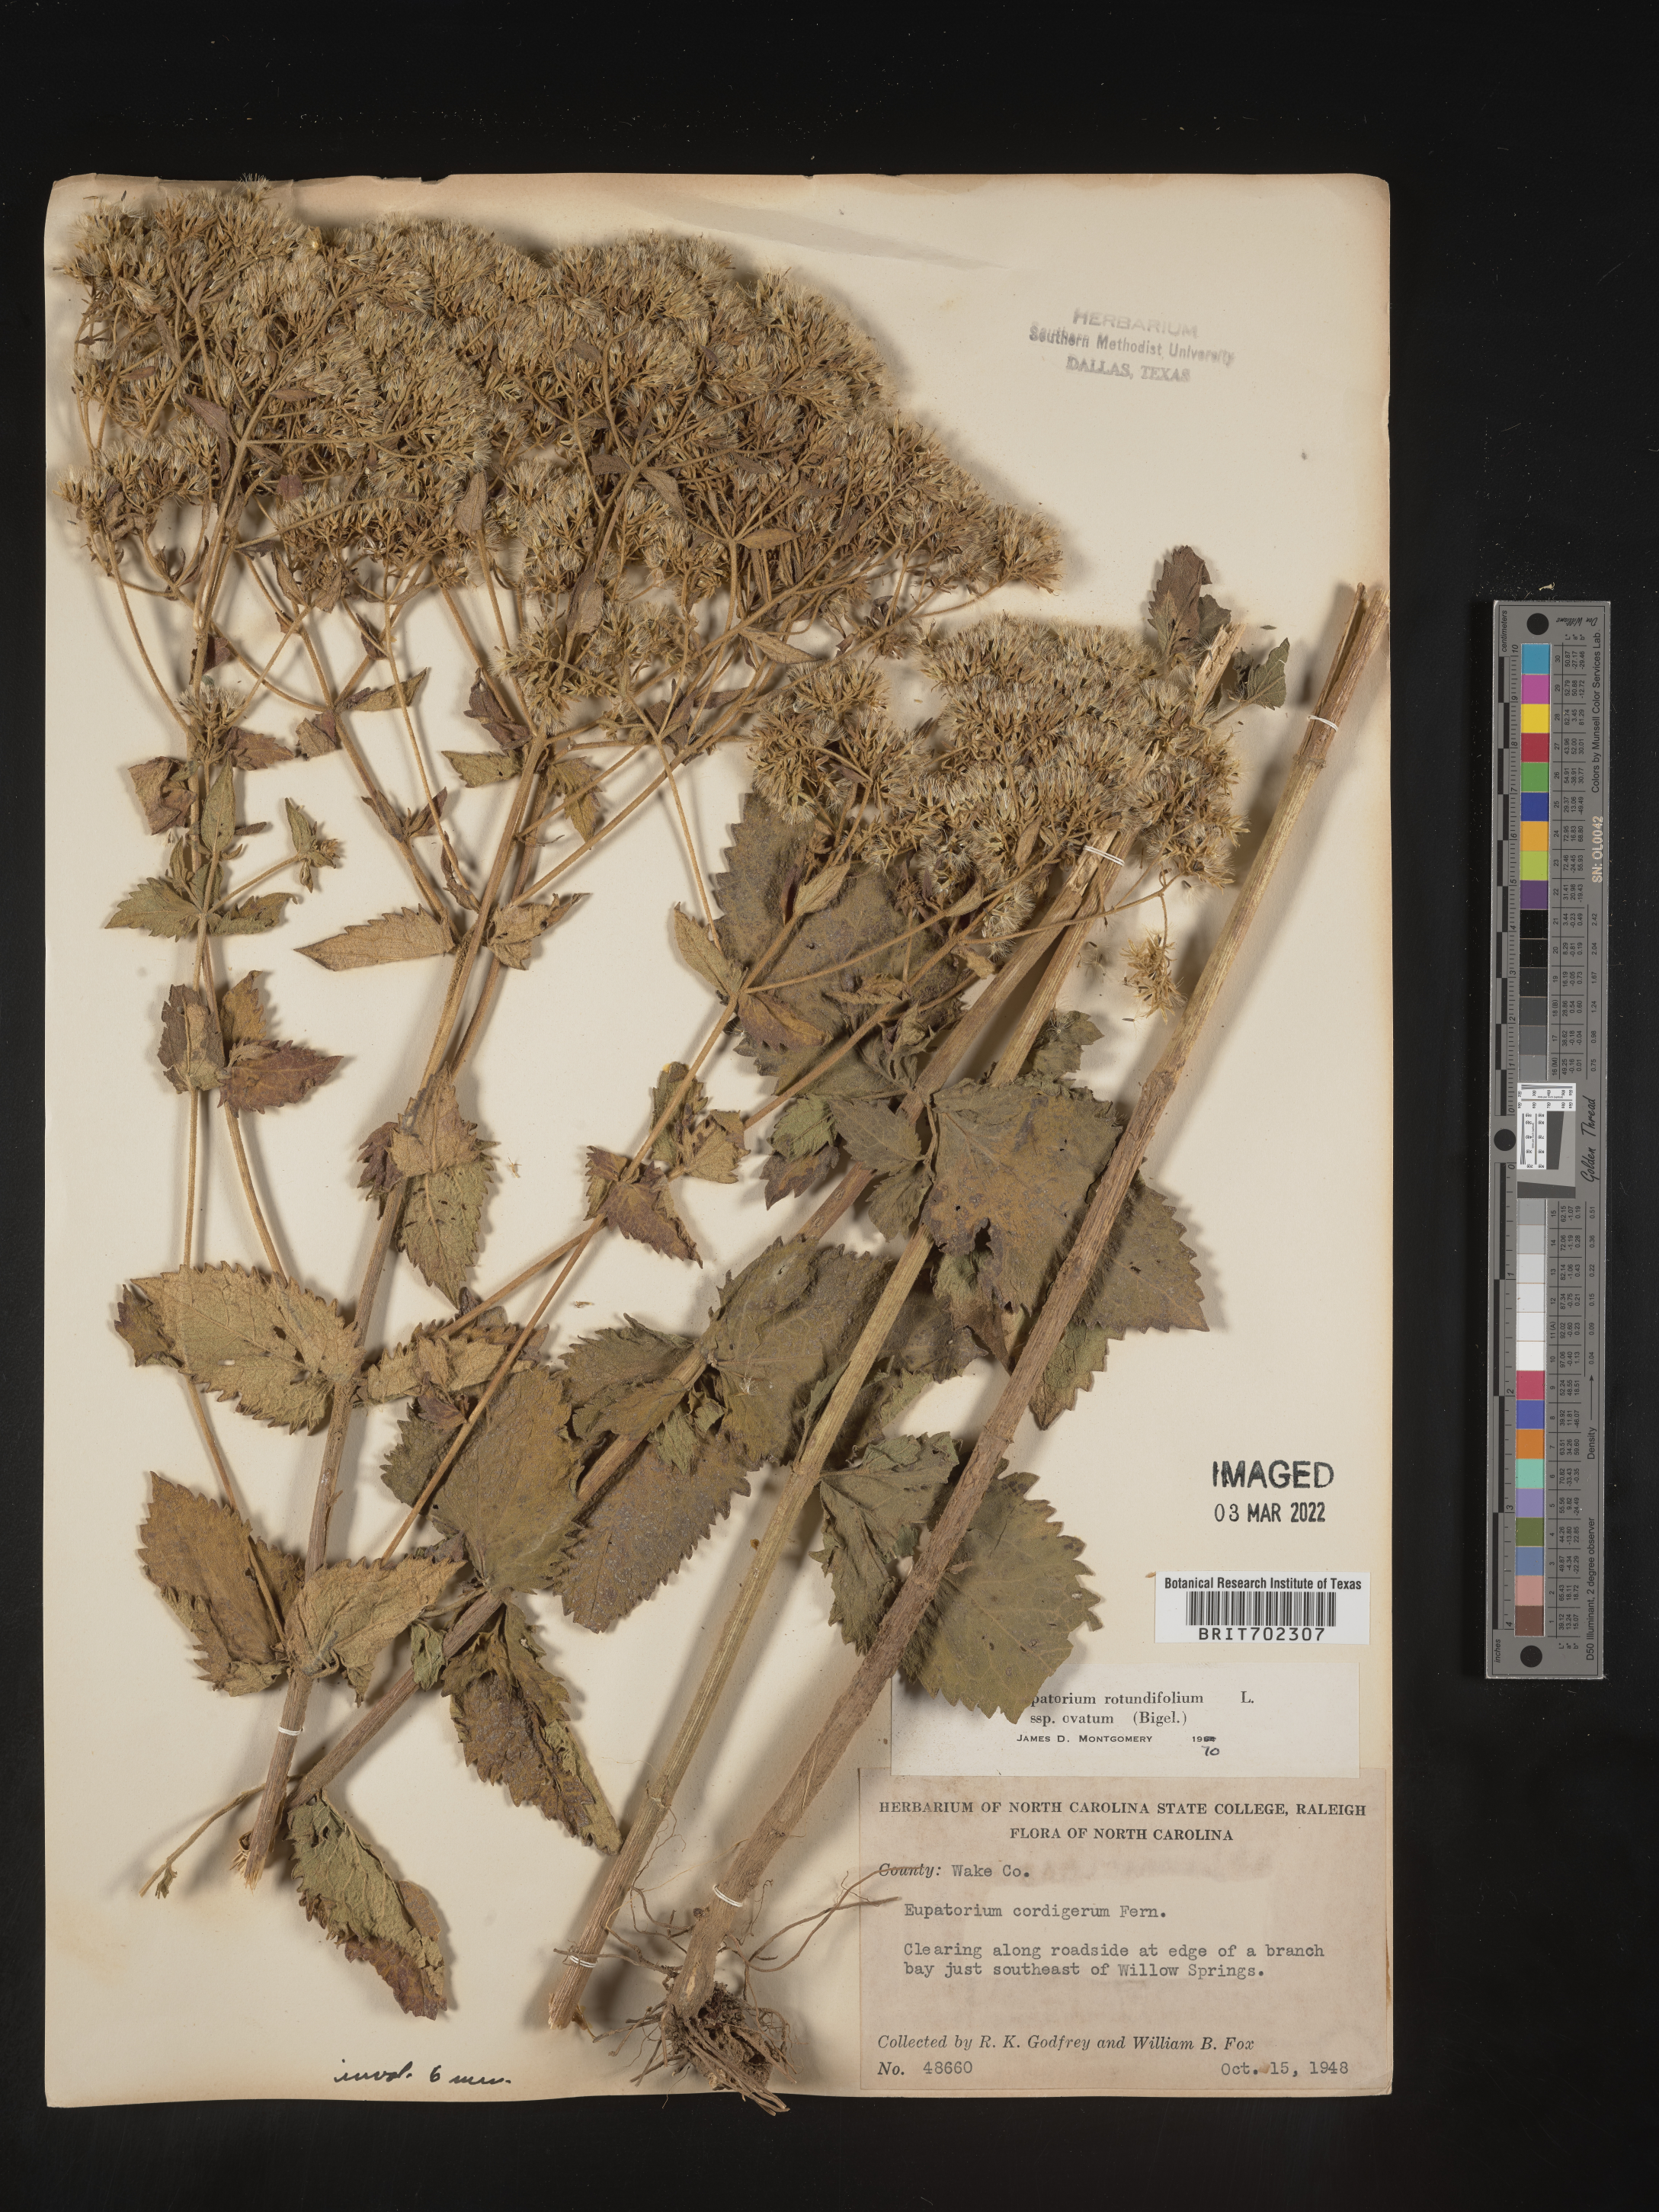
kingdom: Plantae
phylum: Tracheophyta
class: Magnoliopsida
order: Asterales
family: Asteraceae
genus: Eupatorium
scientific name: Eupatorium rotundifolium
